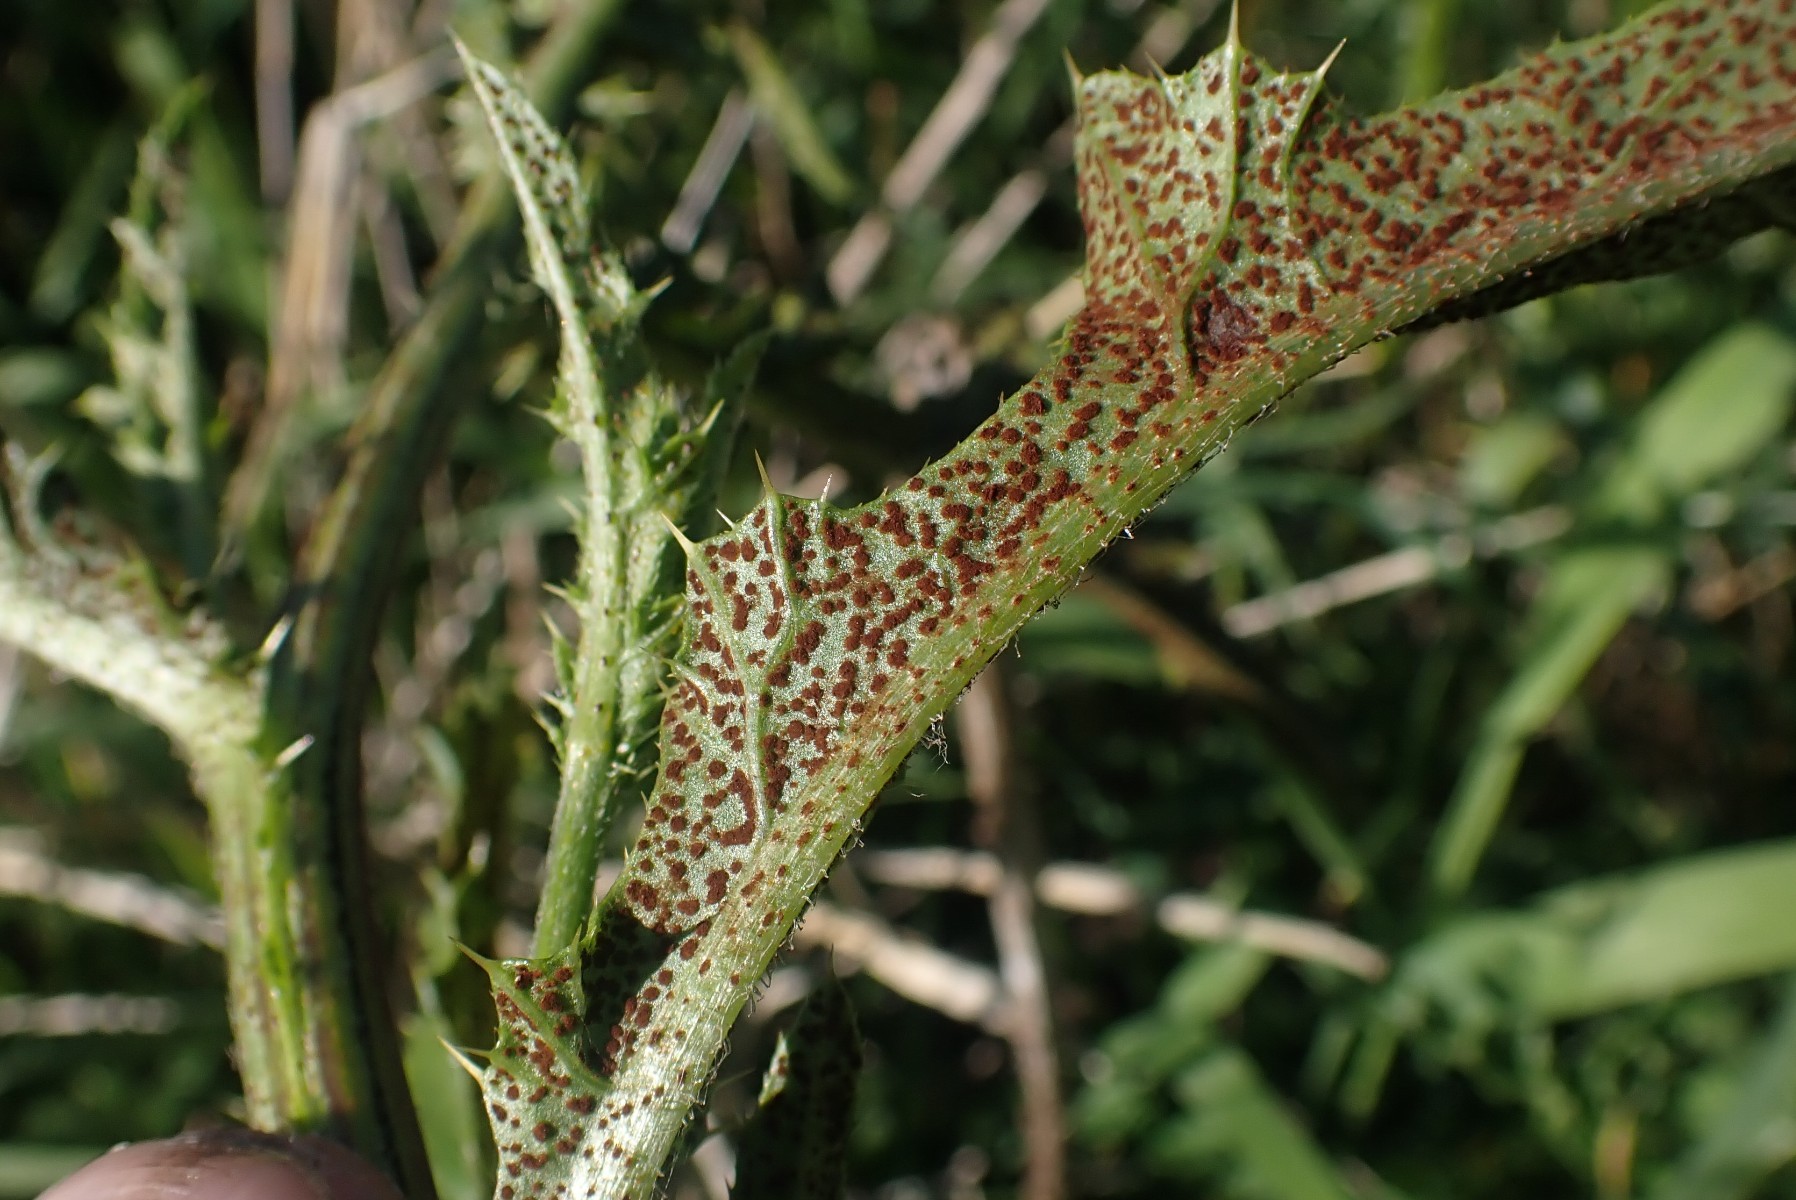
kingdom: Fungi
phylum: Basidiomycota
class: Pucciniomycetes
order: Pucciniales
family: Pucciniaceae
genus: Puccinia
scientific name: Puccinia suaveolens
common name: tidsel-tvecellerust
